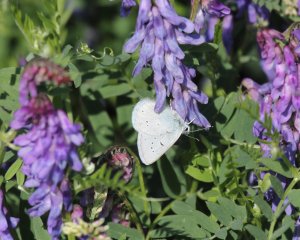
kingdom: Animalia
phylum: Arthropoda
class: Insecta
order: Lepidoptera
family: Lycaenidae
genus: Plebejus
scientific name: Plebejus saepiolus
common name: Greenish Blue
